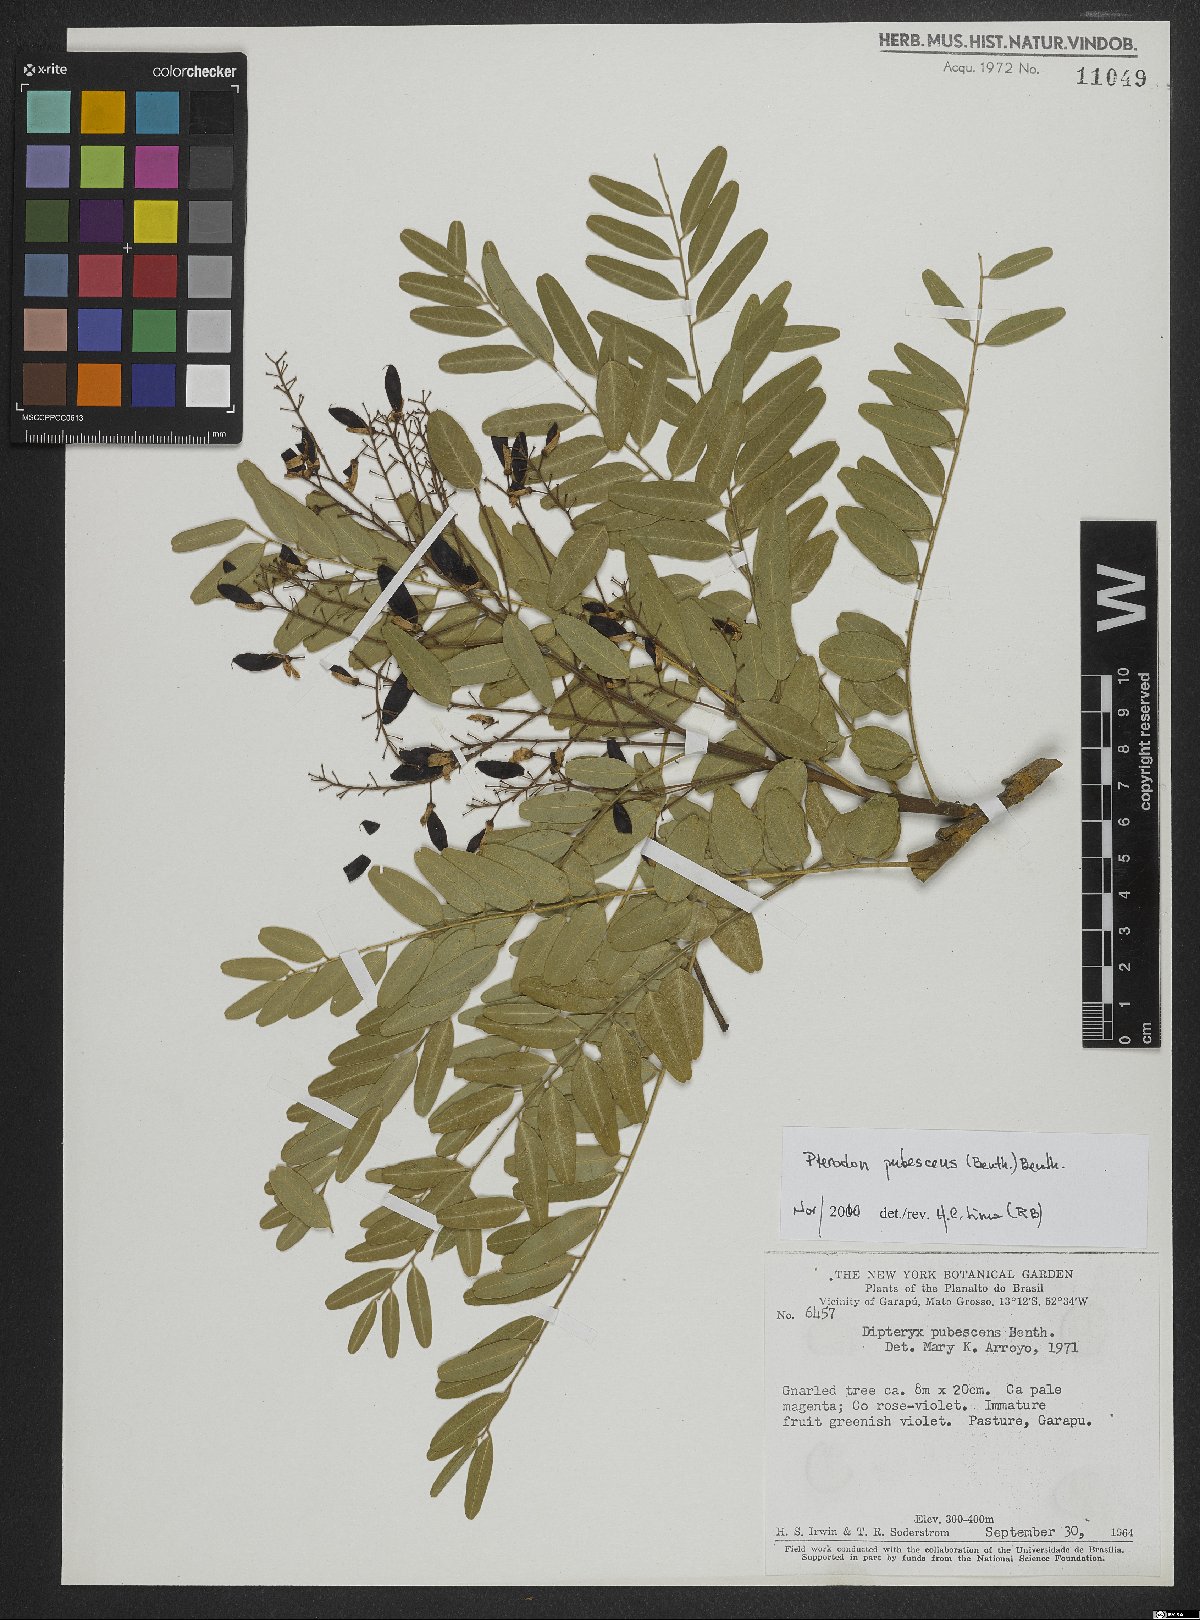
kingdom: Plantae
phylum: Tracheophyta
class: Magnoliopsida
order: Fabales
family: Fabaceae
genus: Pterodon
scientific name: Pterodon
